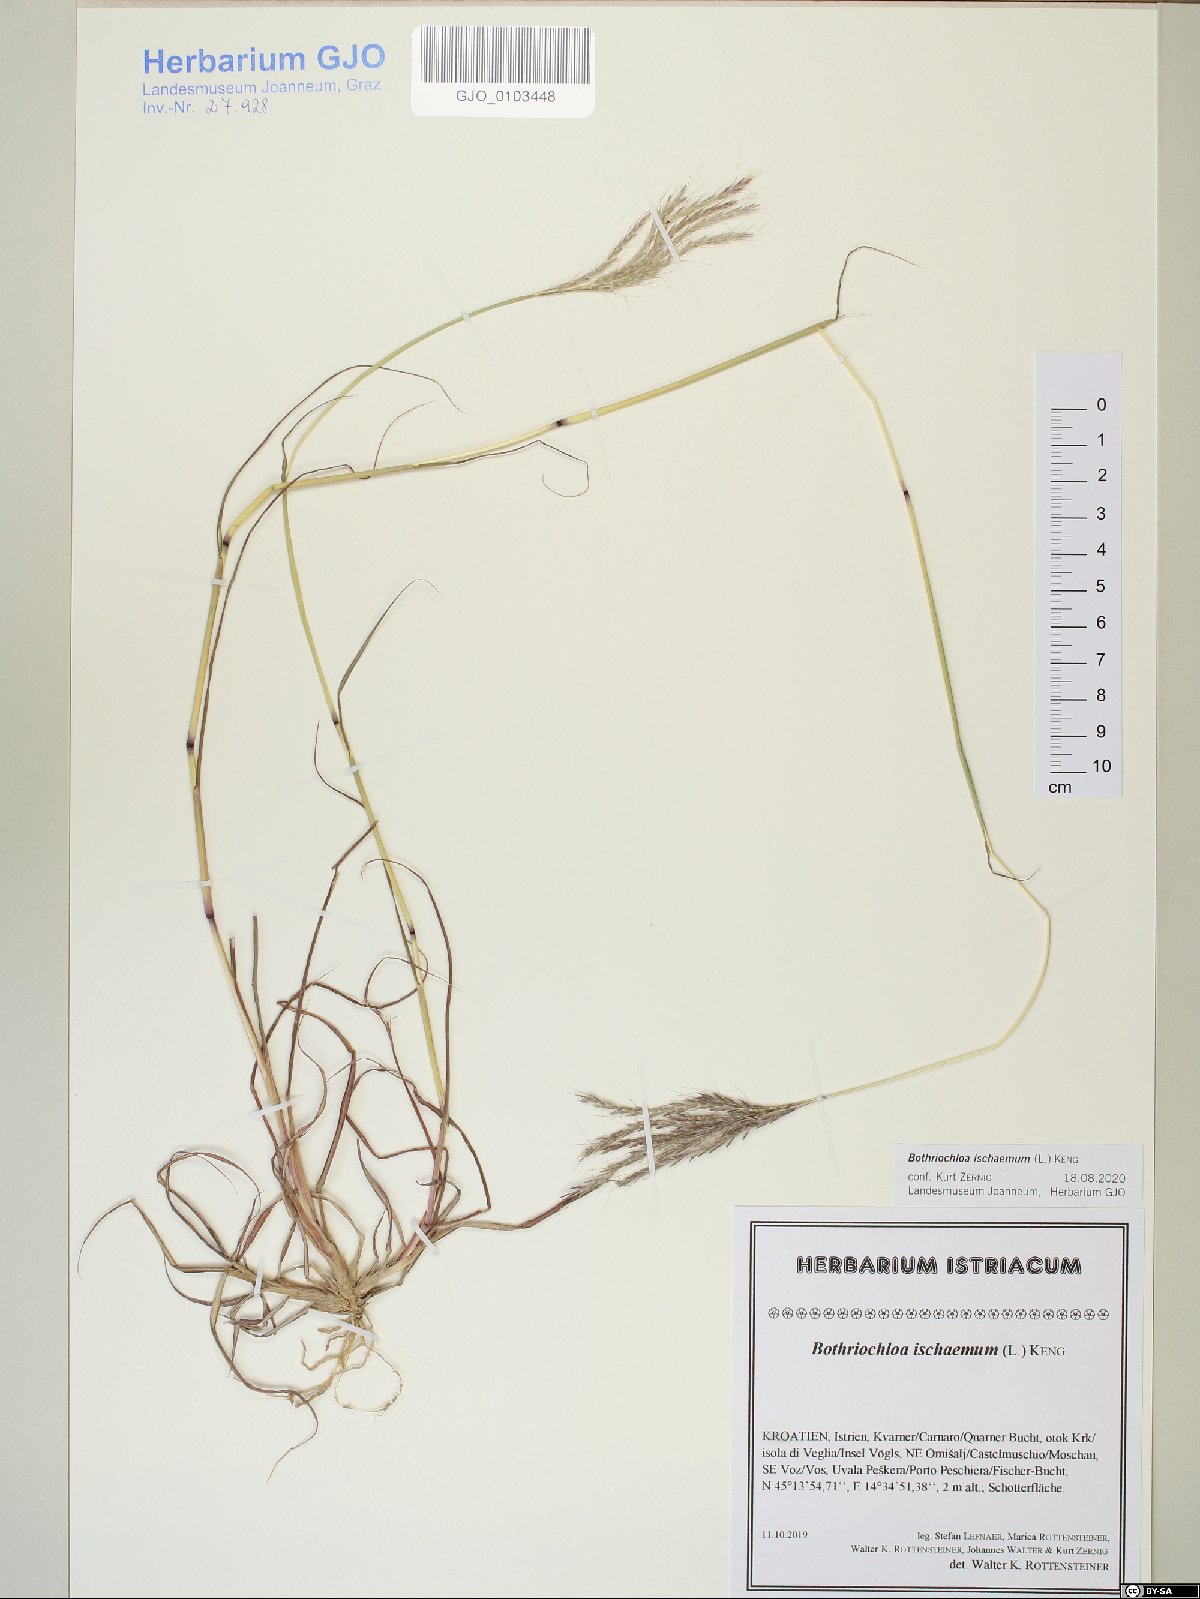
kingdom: Plantae
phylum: Tracheophyta
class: Liliopsida
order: Poales
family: Poaceae
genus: Bothriochloa
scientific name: Bothriochloa ischaemum
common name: Yellow bluestem
